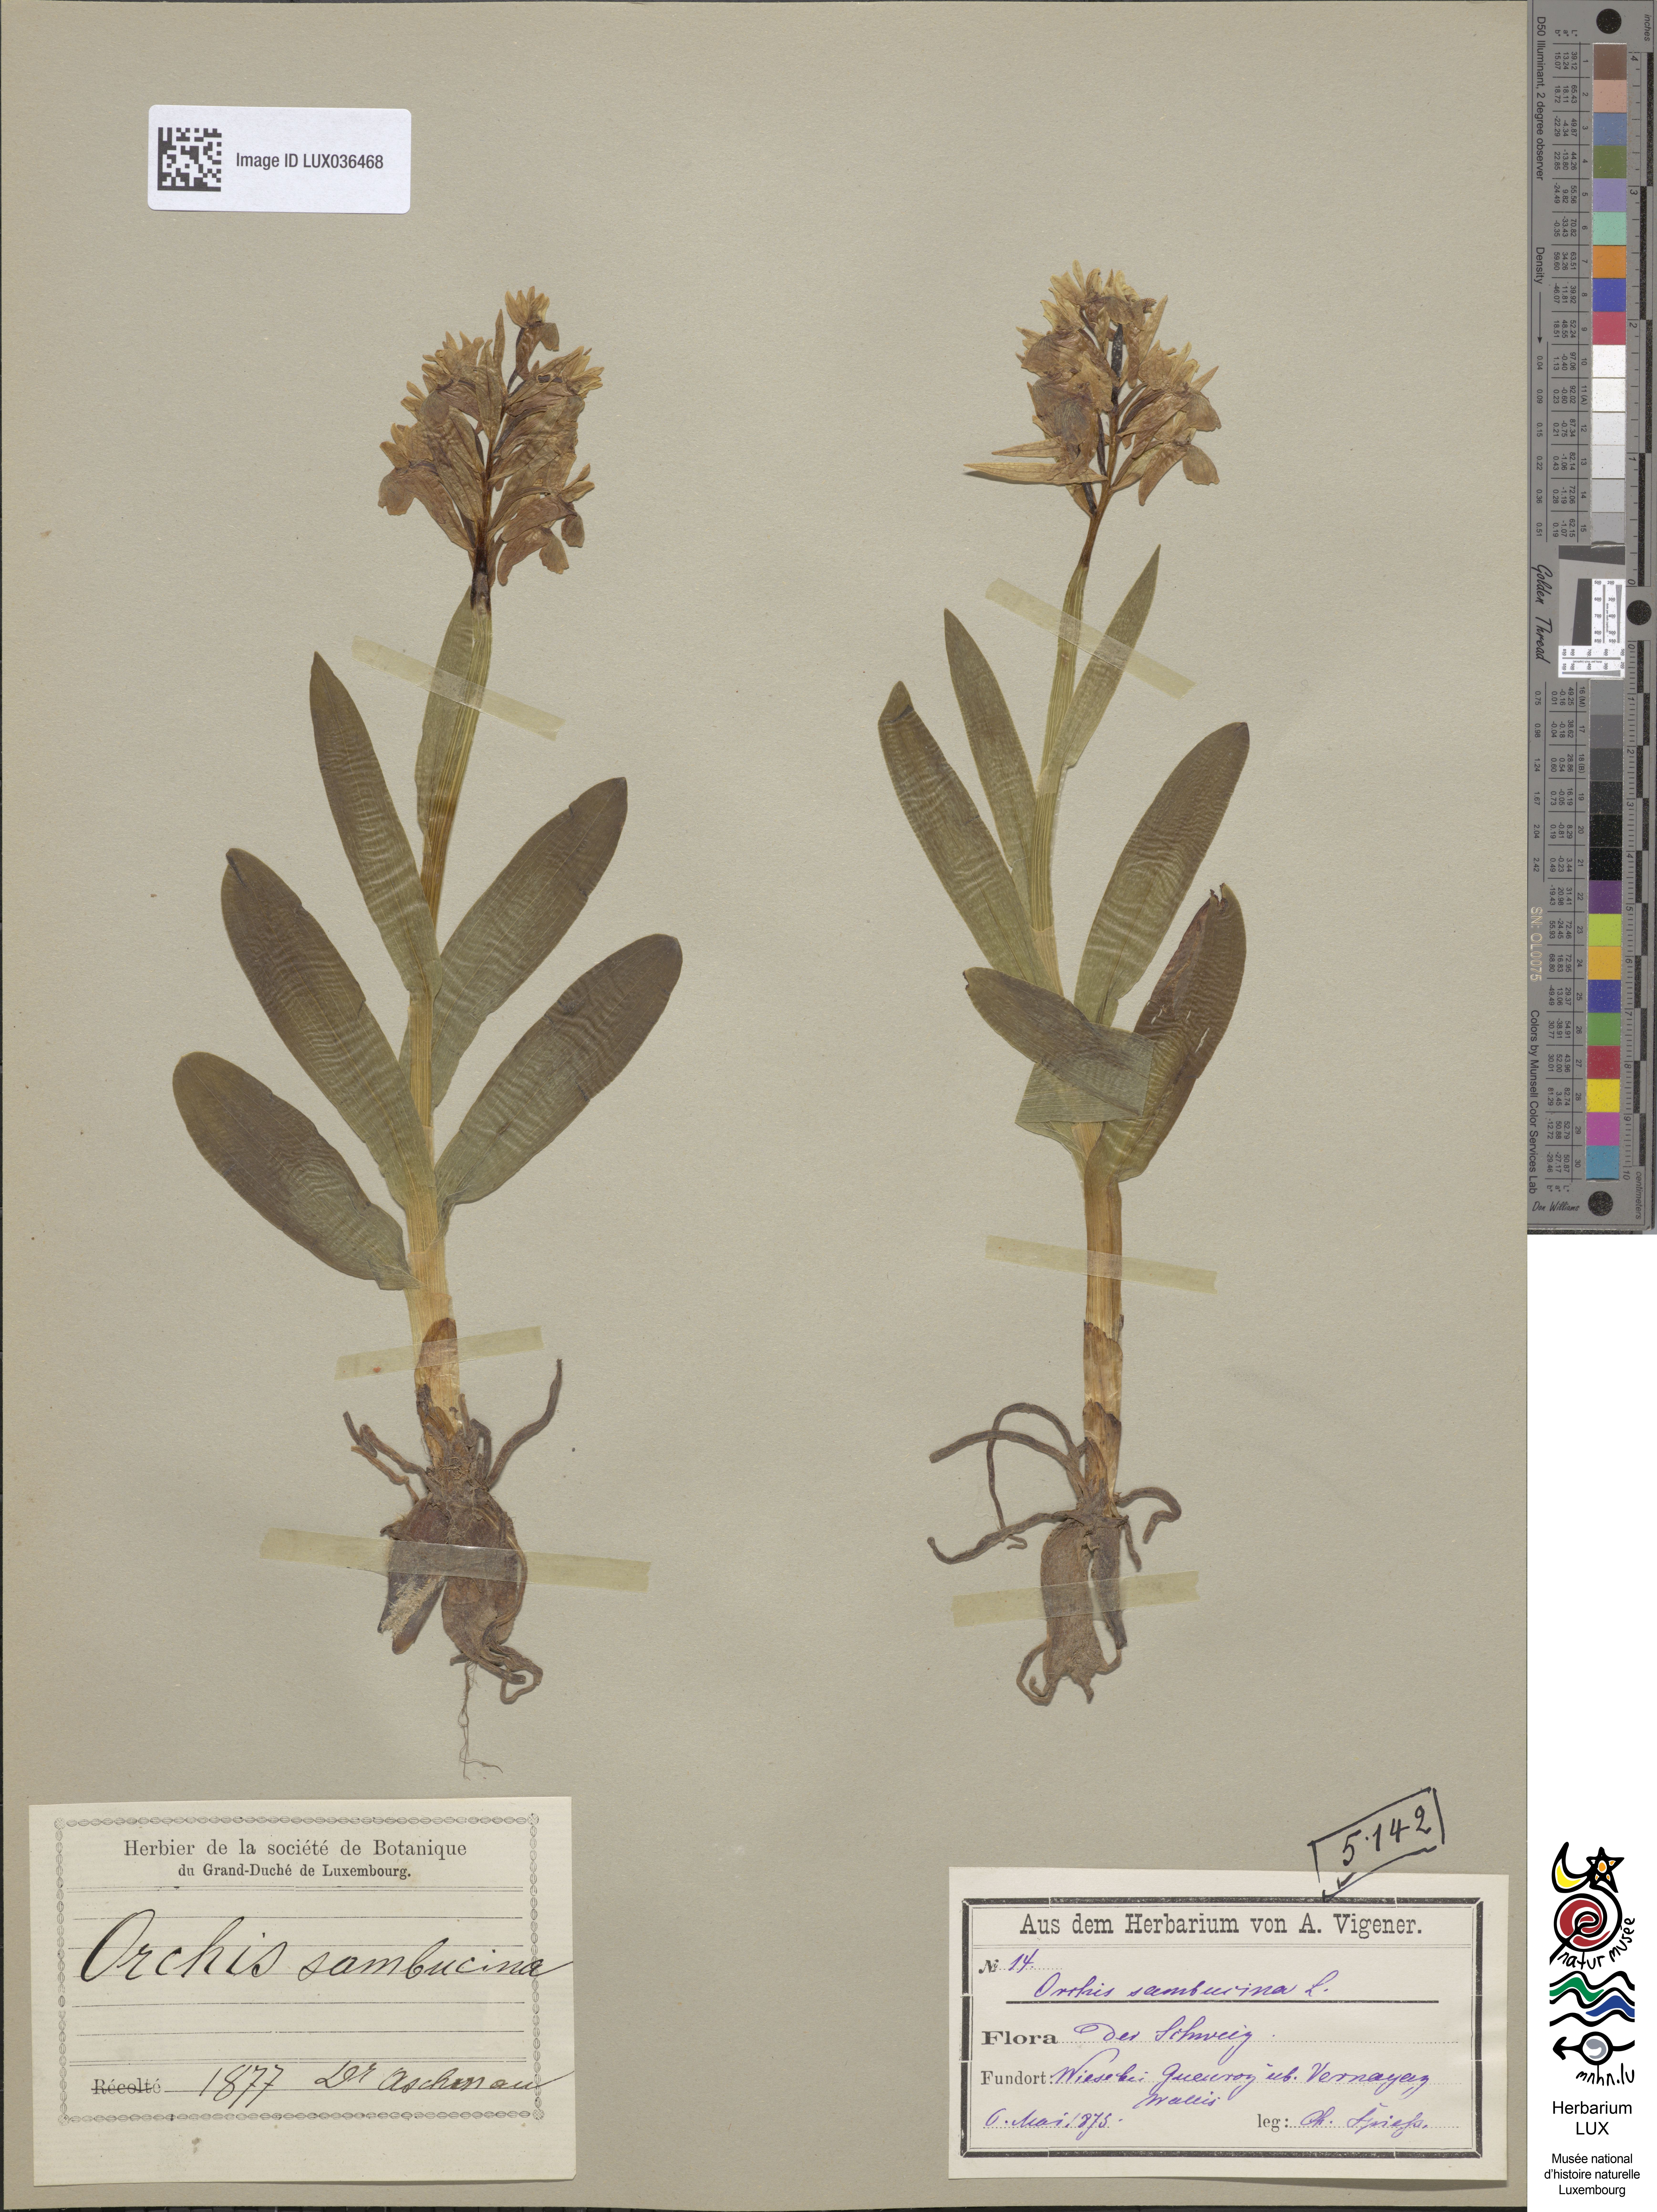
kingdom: Plantae
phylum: Tracheophyta
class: Liliopsida
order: Asparagales
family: Orchidaceae
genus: Dactylorhiza
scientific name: Dactylorhiza sambucina
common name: Elder-flowered orchid
